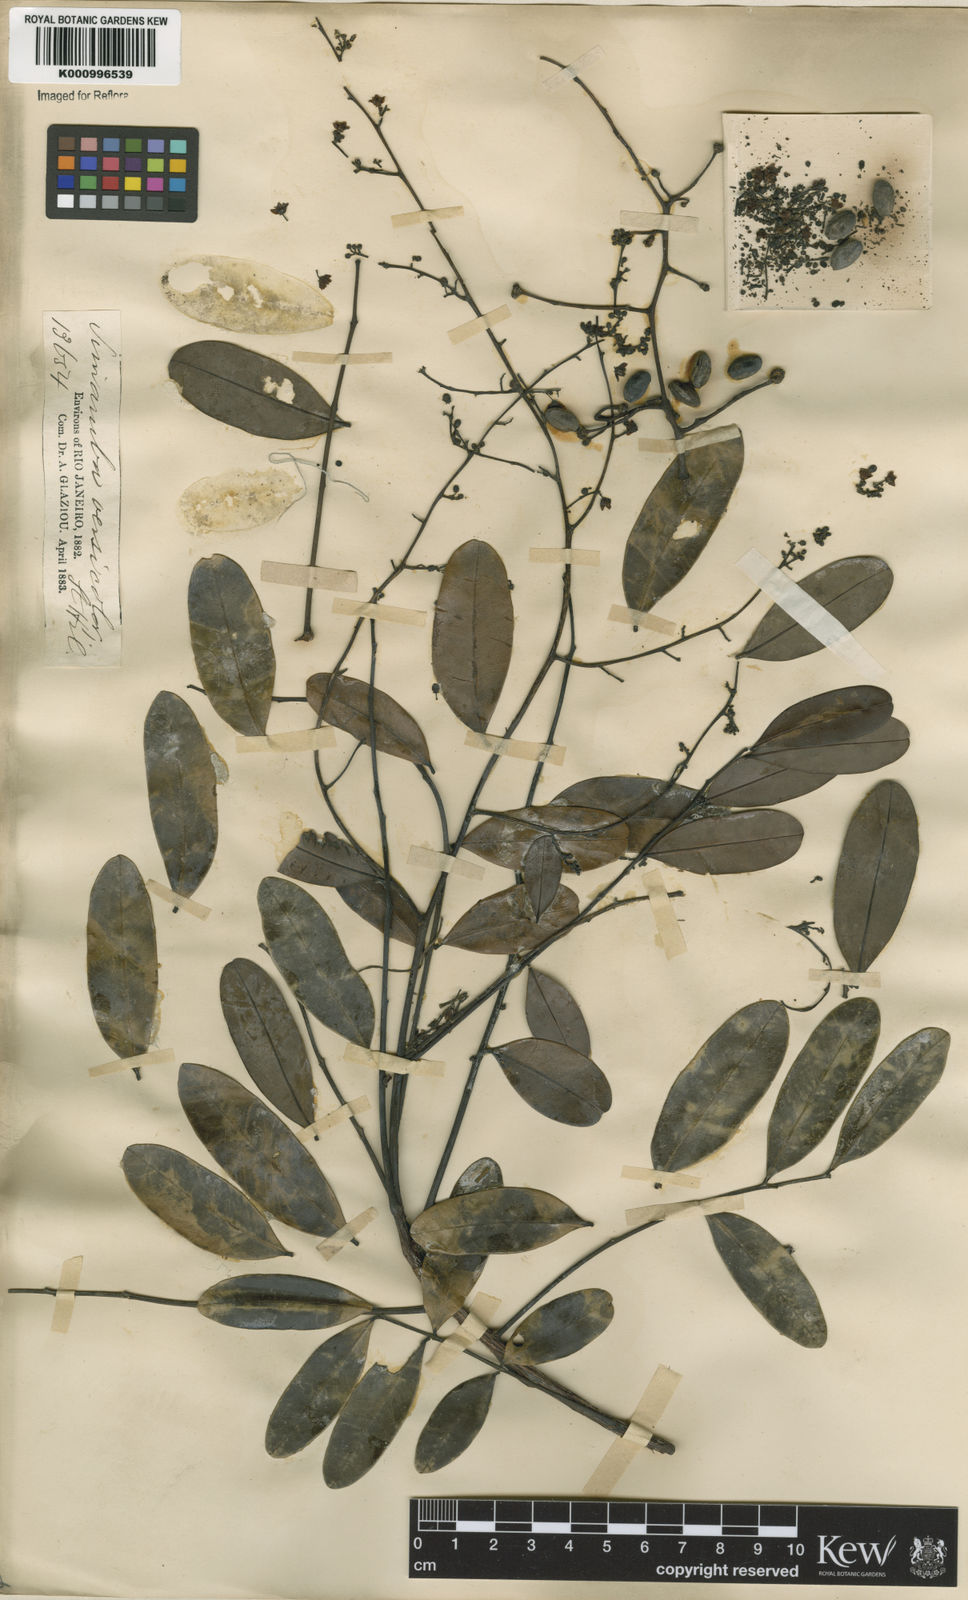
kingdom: Plantae
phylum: Tracheophyta
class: Magnoliopsida
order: Sapindales
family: Simaroubaceae
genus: Simarouba
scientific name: Simarouba versicolor
